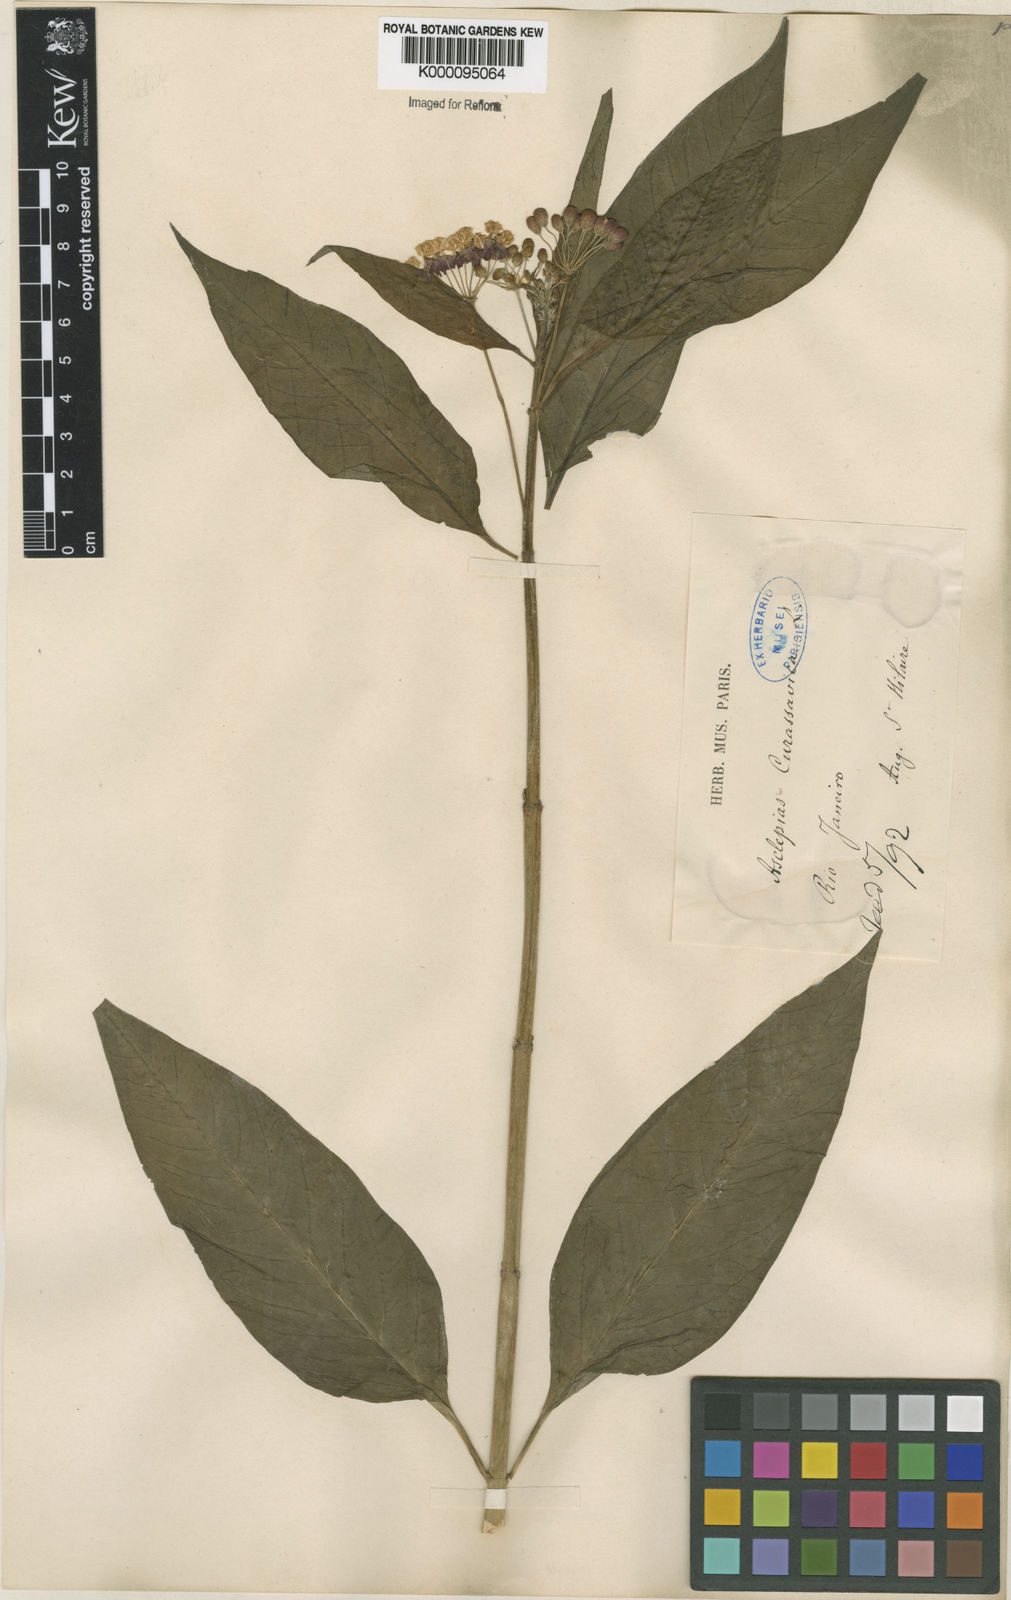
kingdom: Plantae
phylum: Tracheophyta
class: Magnoliopsida
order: Gentianales
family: Apocynaceae
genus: Asclepias
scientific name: Asclepias curassavica
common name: Bloodflower
